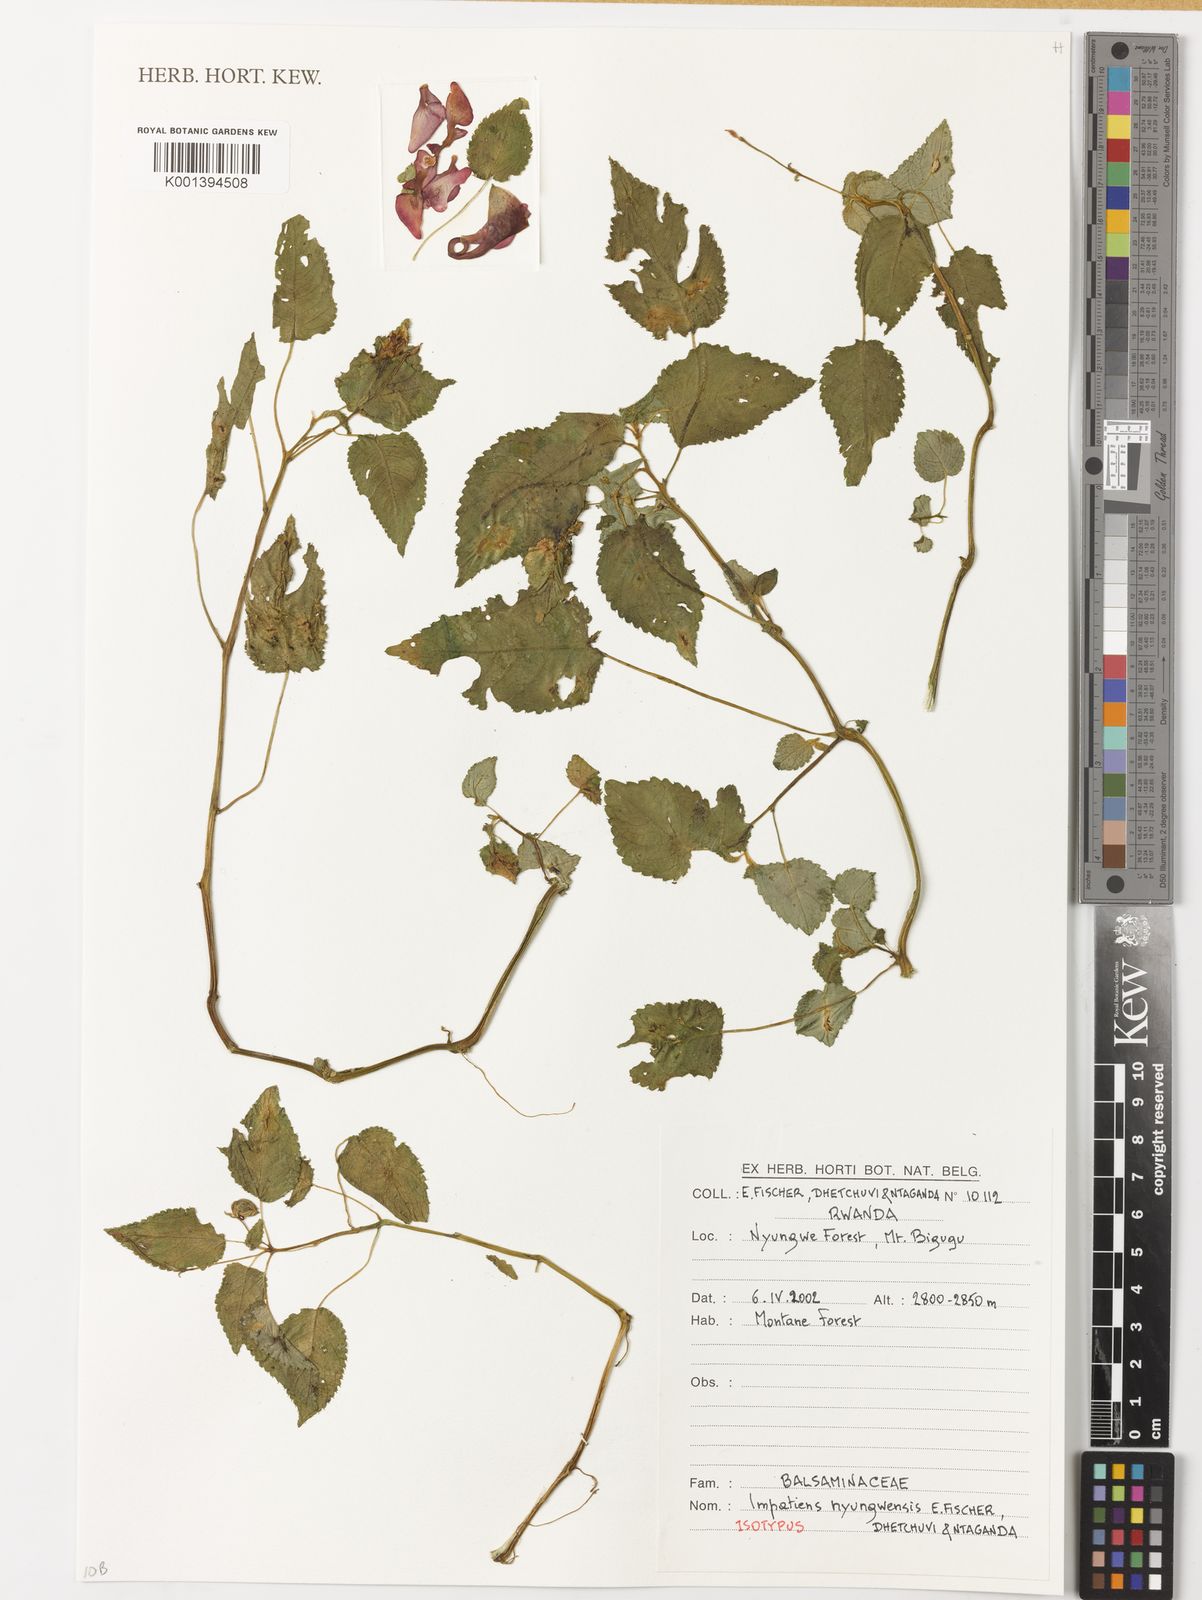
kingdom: Plantae
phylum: Tracheophyta
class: Magnoliopsida
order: Ericales
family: Balsaminaceae
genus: Impatiens
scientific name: Impatiens
